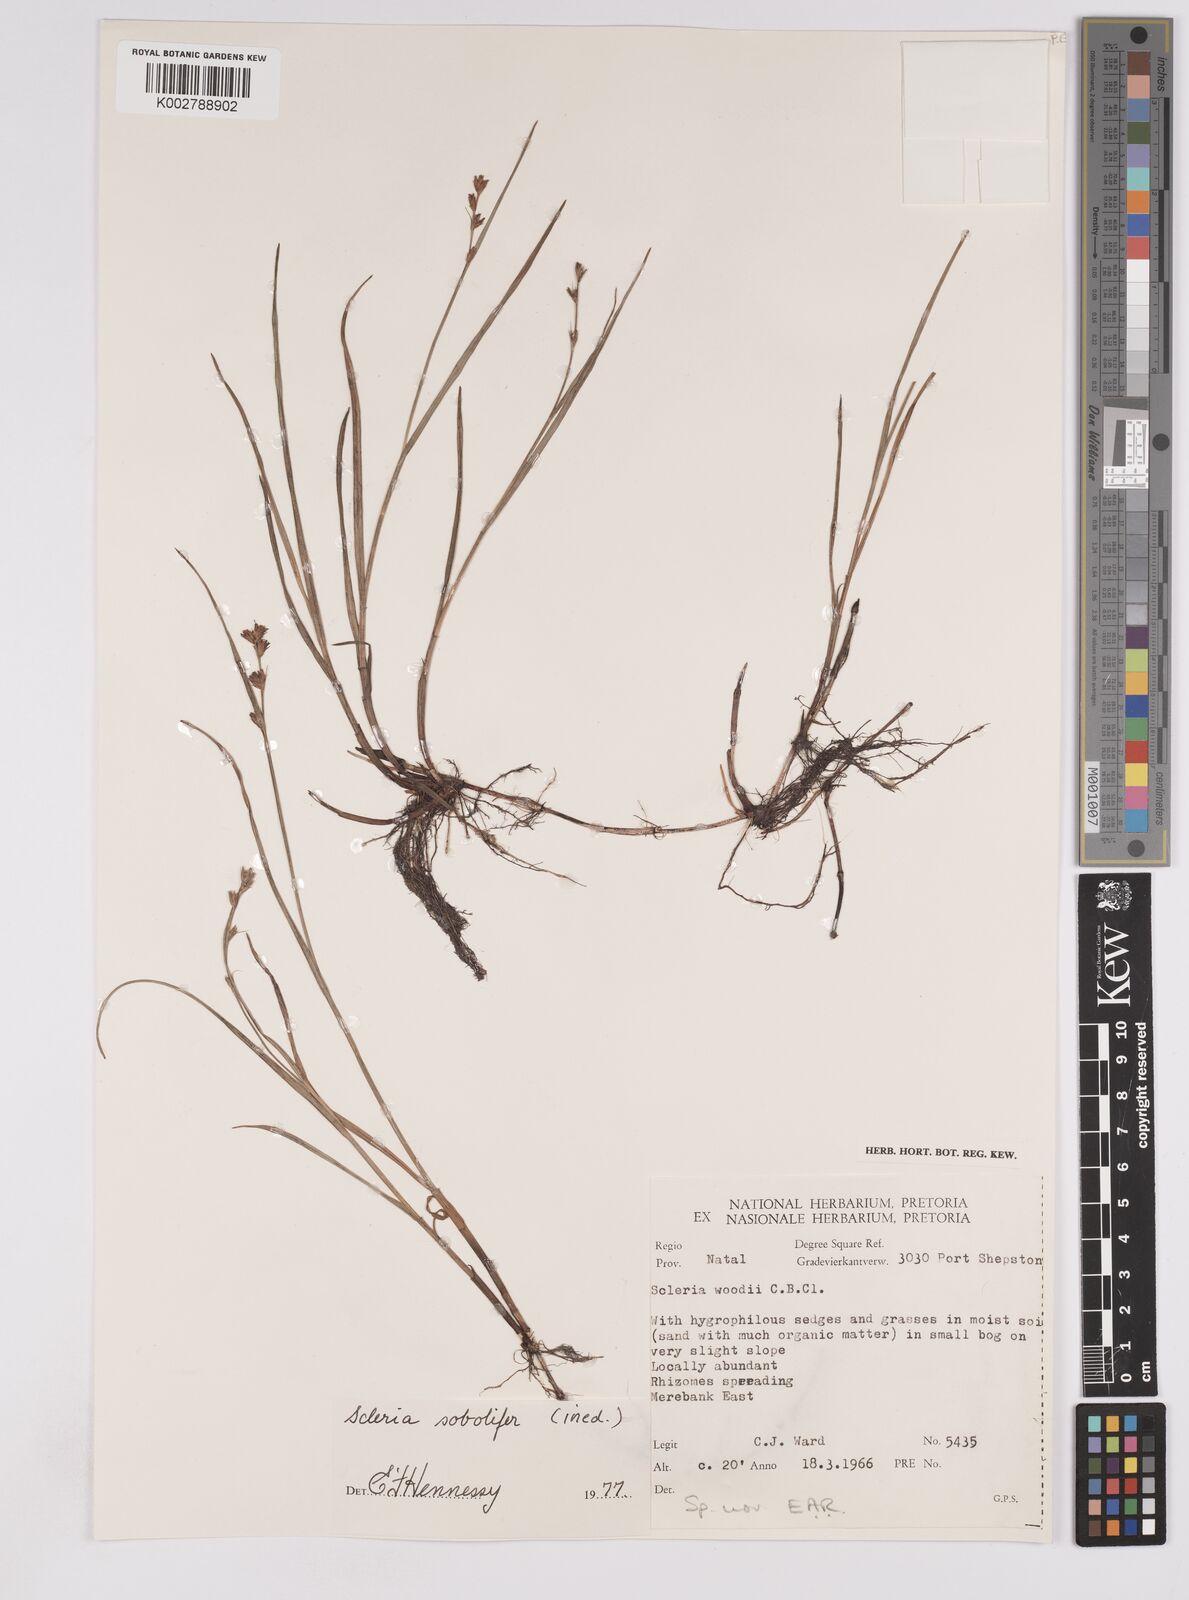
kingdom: Plantae
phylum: Tracheophyta
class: Liliopsida
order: Poales
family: Cyperaceae
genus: Scleria
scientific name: Scleria sobolifera
